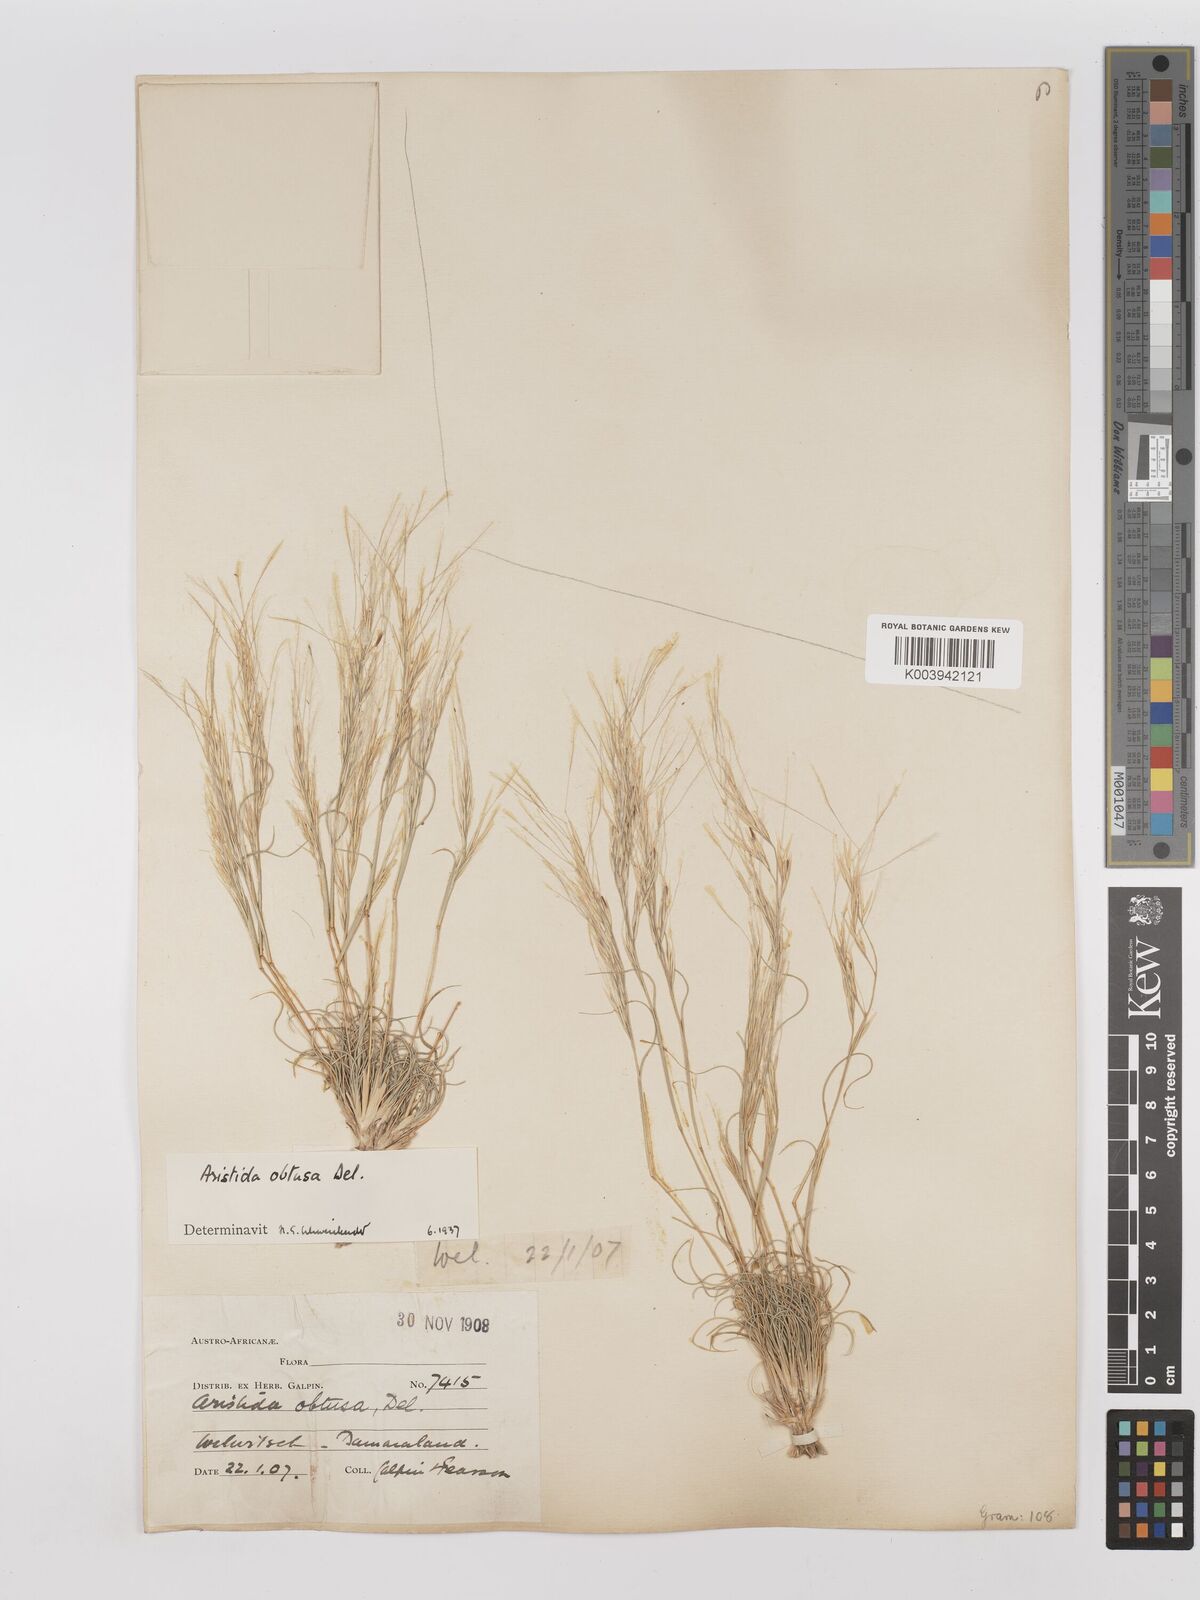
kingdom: Plantae
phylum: Tracheophyta
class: Liliopsida
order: Poales
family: Poaceae
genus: Stipagrostis
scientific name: Stipagrostis obtusa
